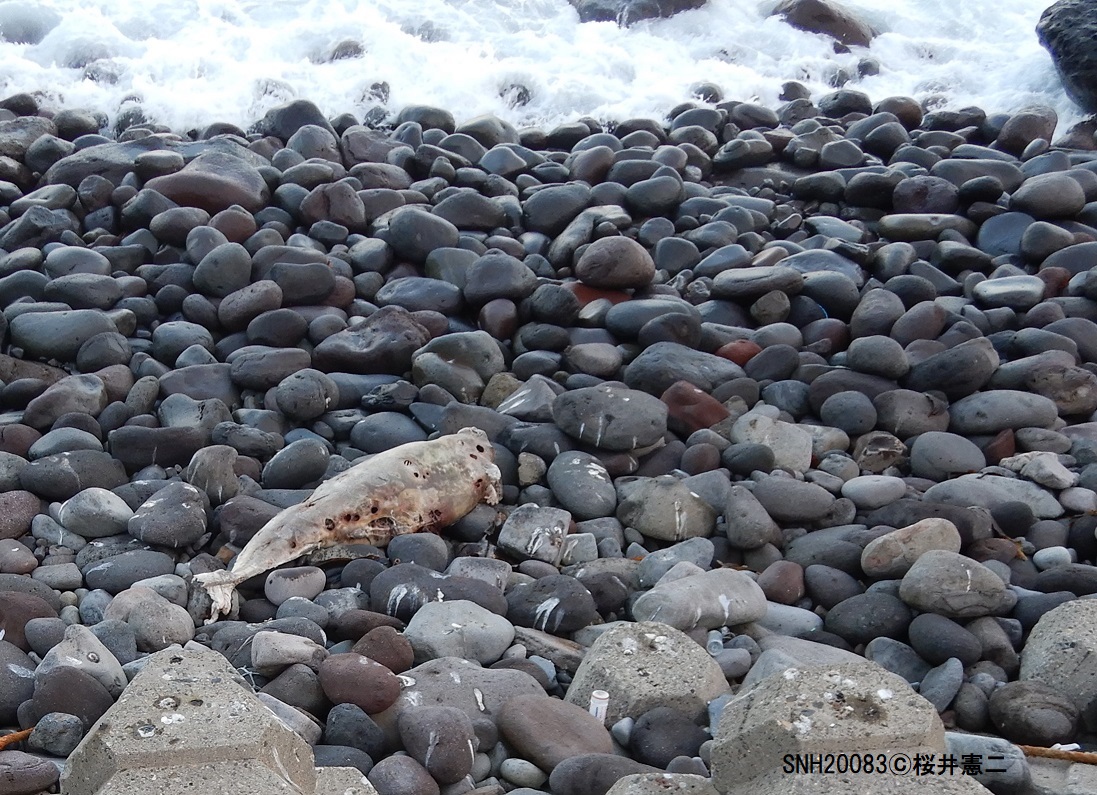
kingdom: Animalia
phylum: Chordata
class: Mammalia
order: Cetacea
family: Phocoenidae
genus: Phocoenoides
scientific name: Phocoenoides dalli
